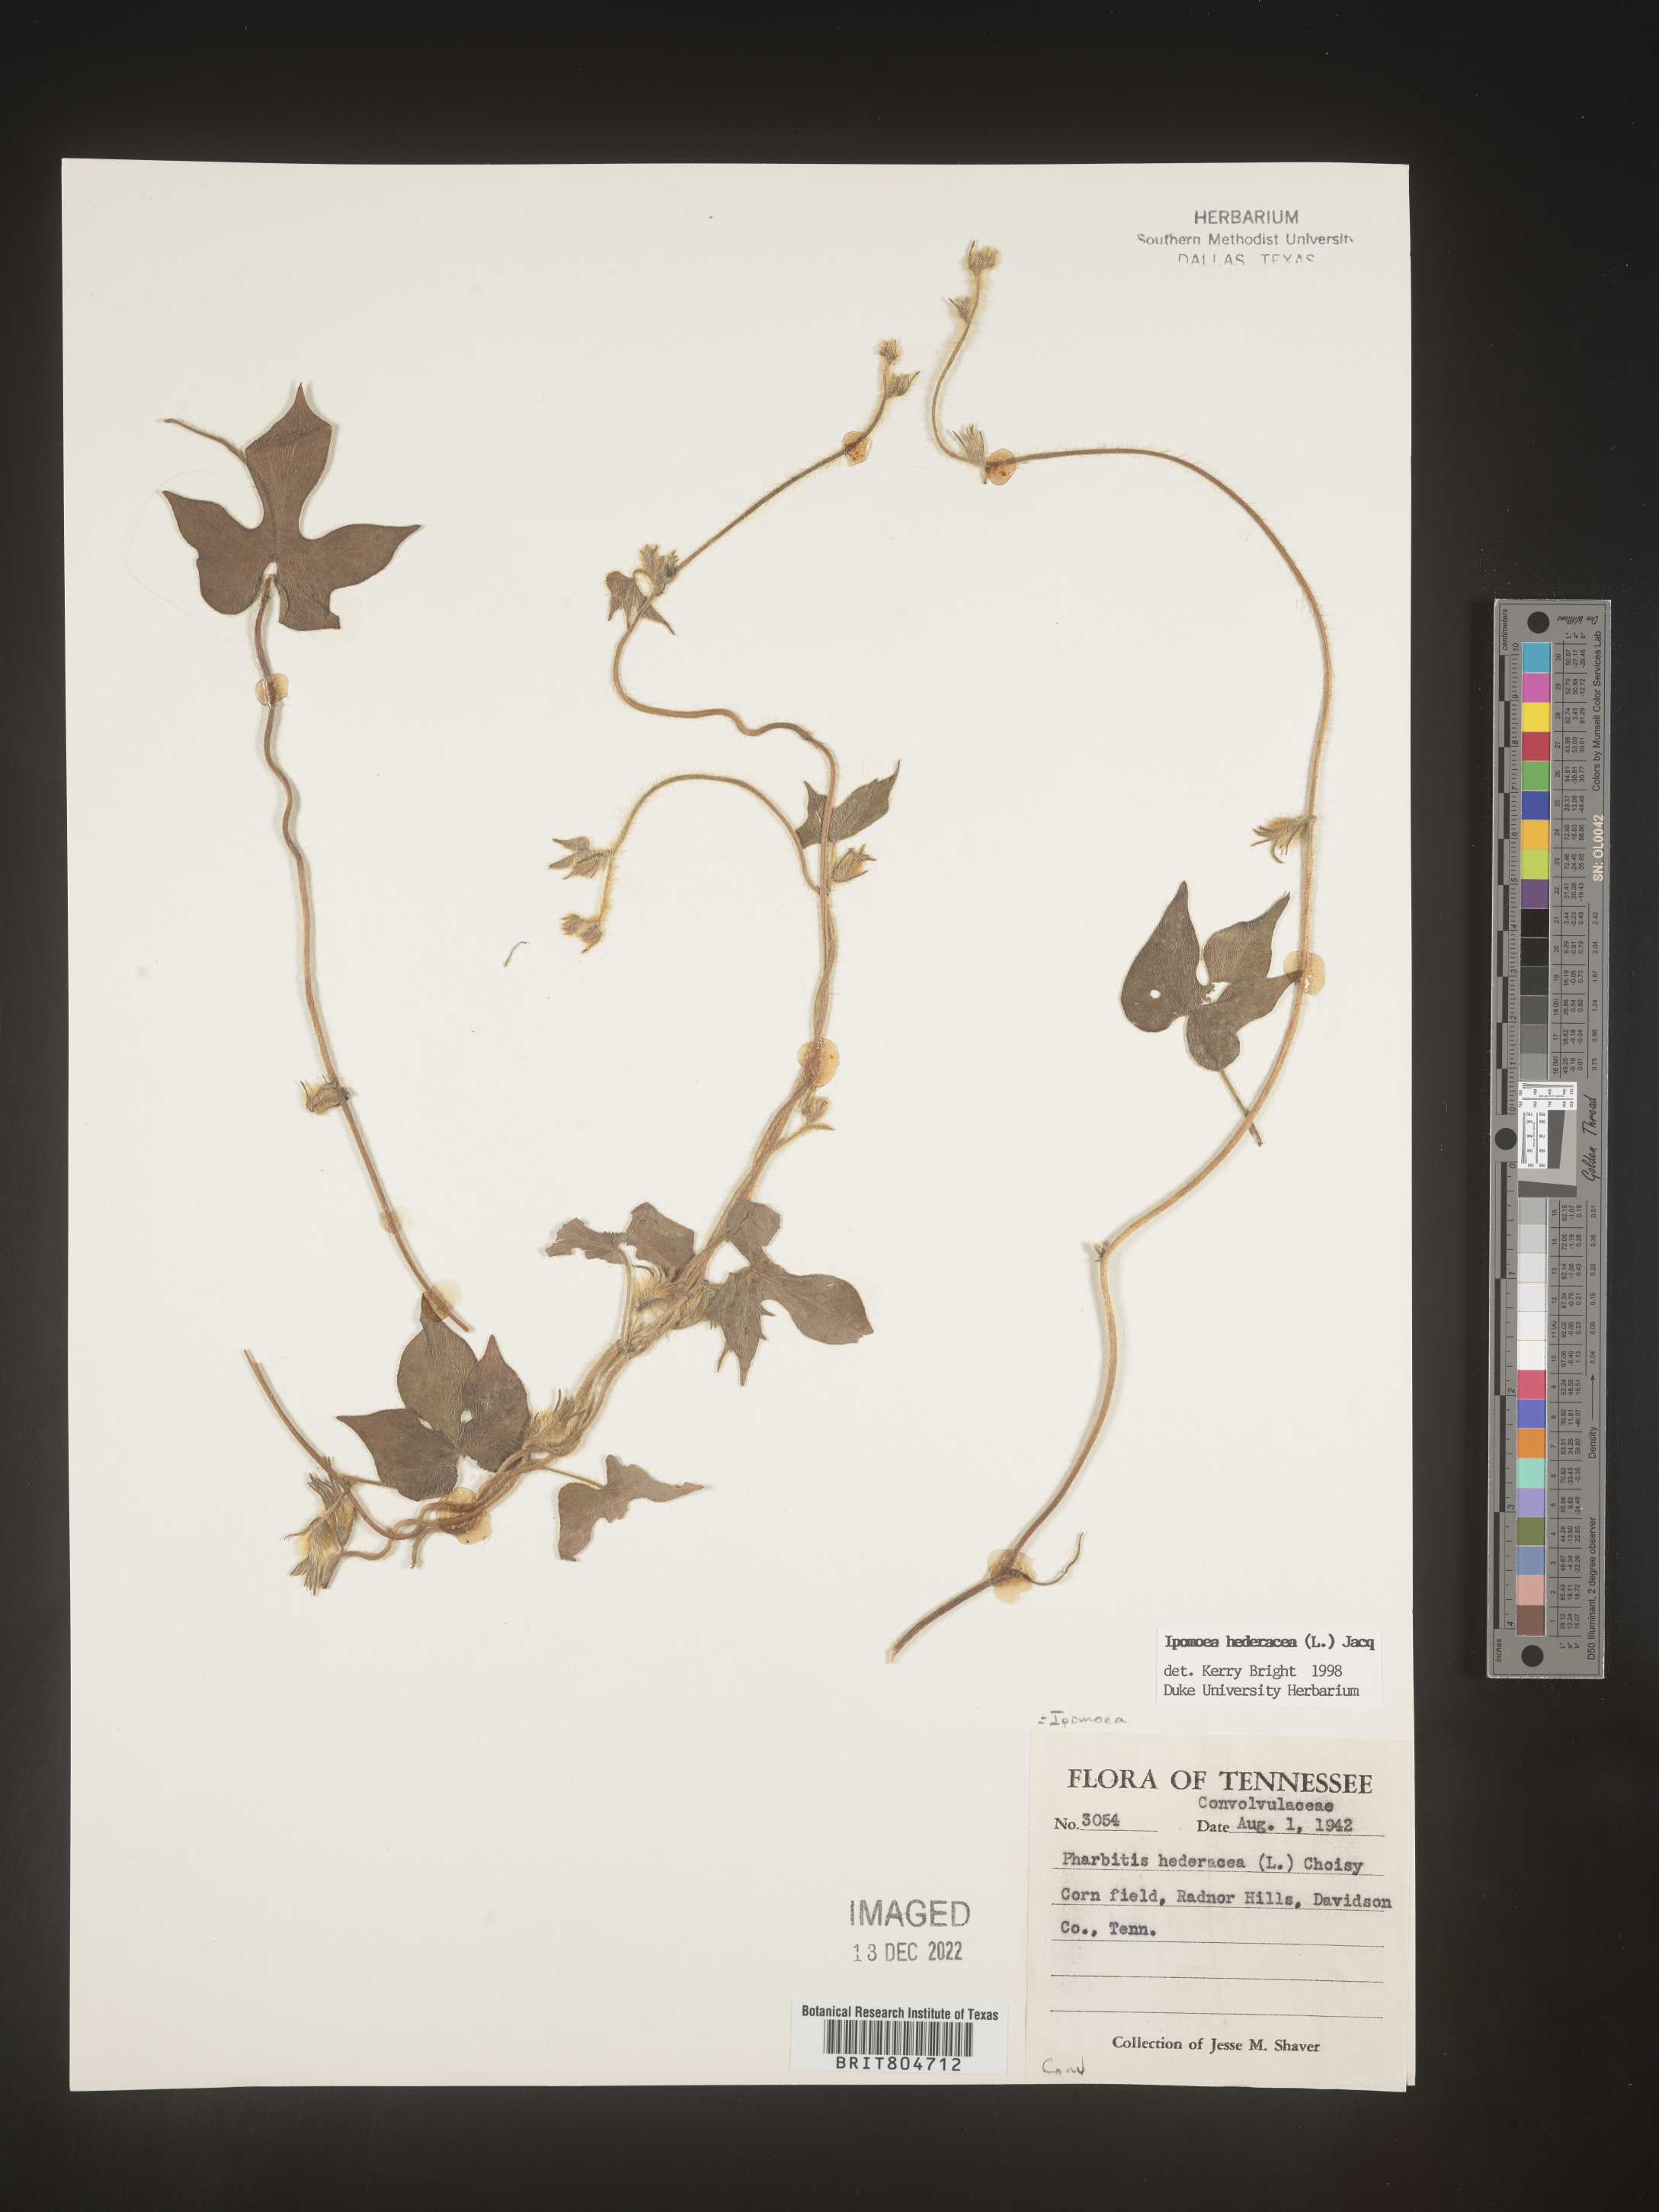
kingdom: Plantae
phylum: Tracheophyta
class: Magnoliopsida
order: Solanales
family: Convolvulaceae
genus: Ipomoea
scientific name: Ipomoea hederacea
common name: Ivy-leaved morning-glory
